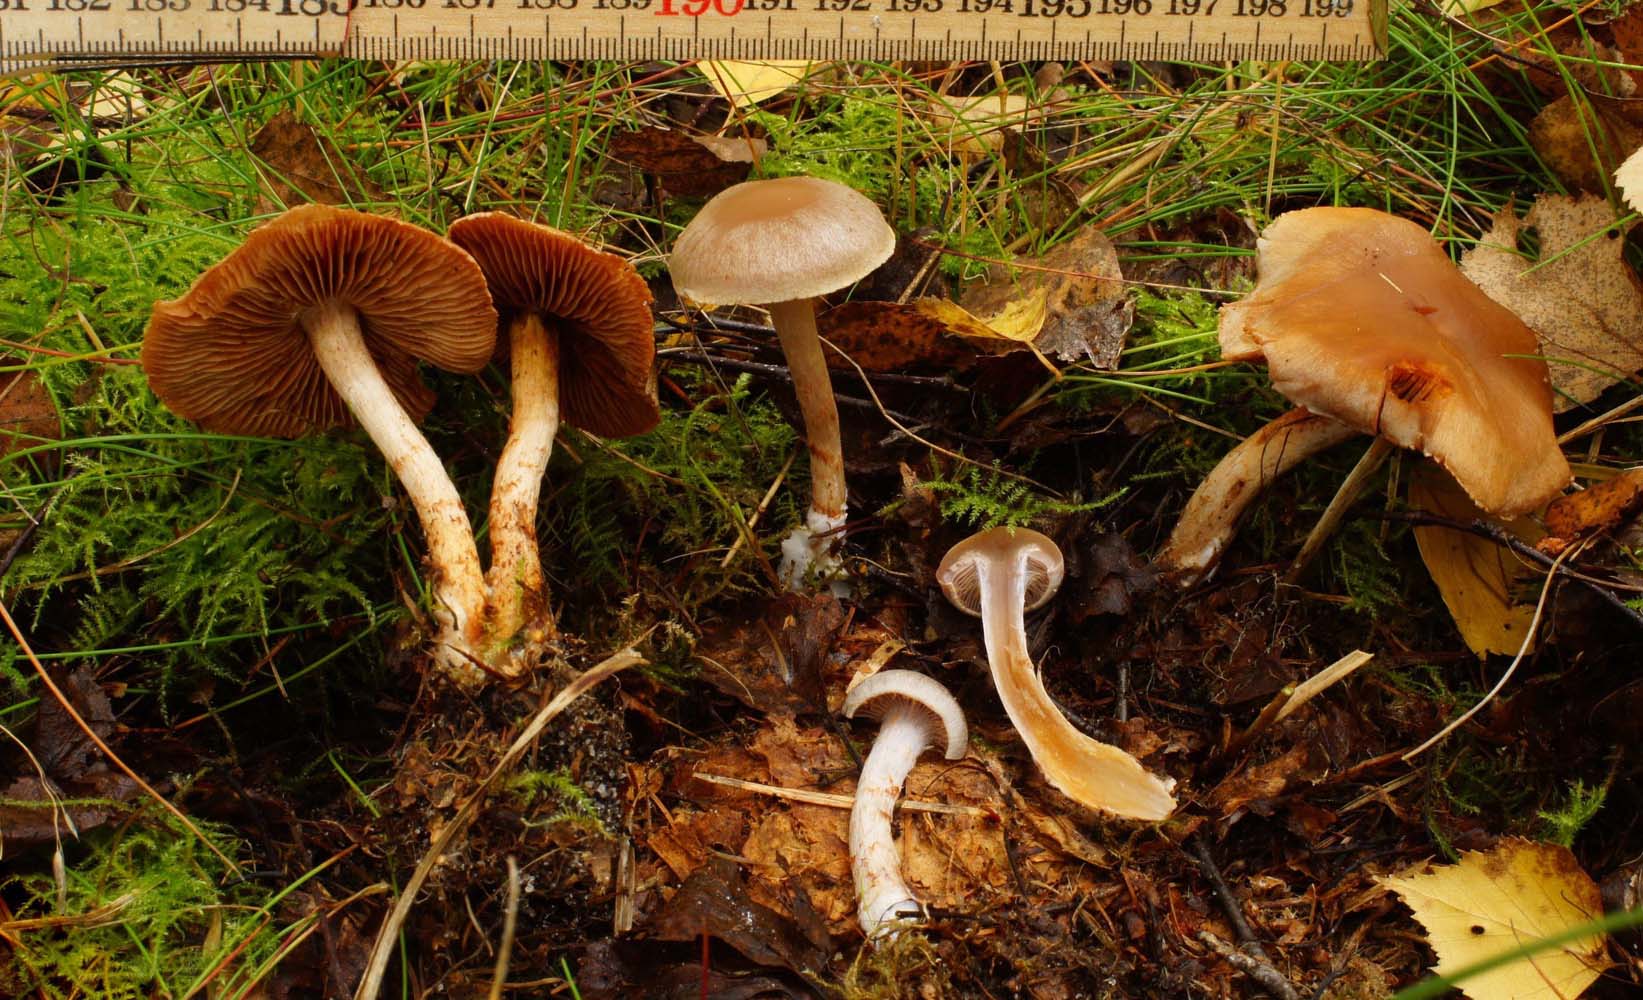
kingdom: Fungi
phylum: Basidiomycota
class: Agaricomycetes
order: Agaricales
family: Cortinariaceae
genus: Cortinarius
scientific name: Cortinarius kauffmanianus
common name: plantage-slørhat
